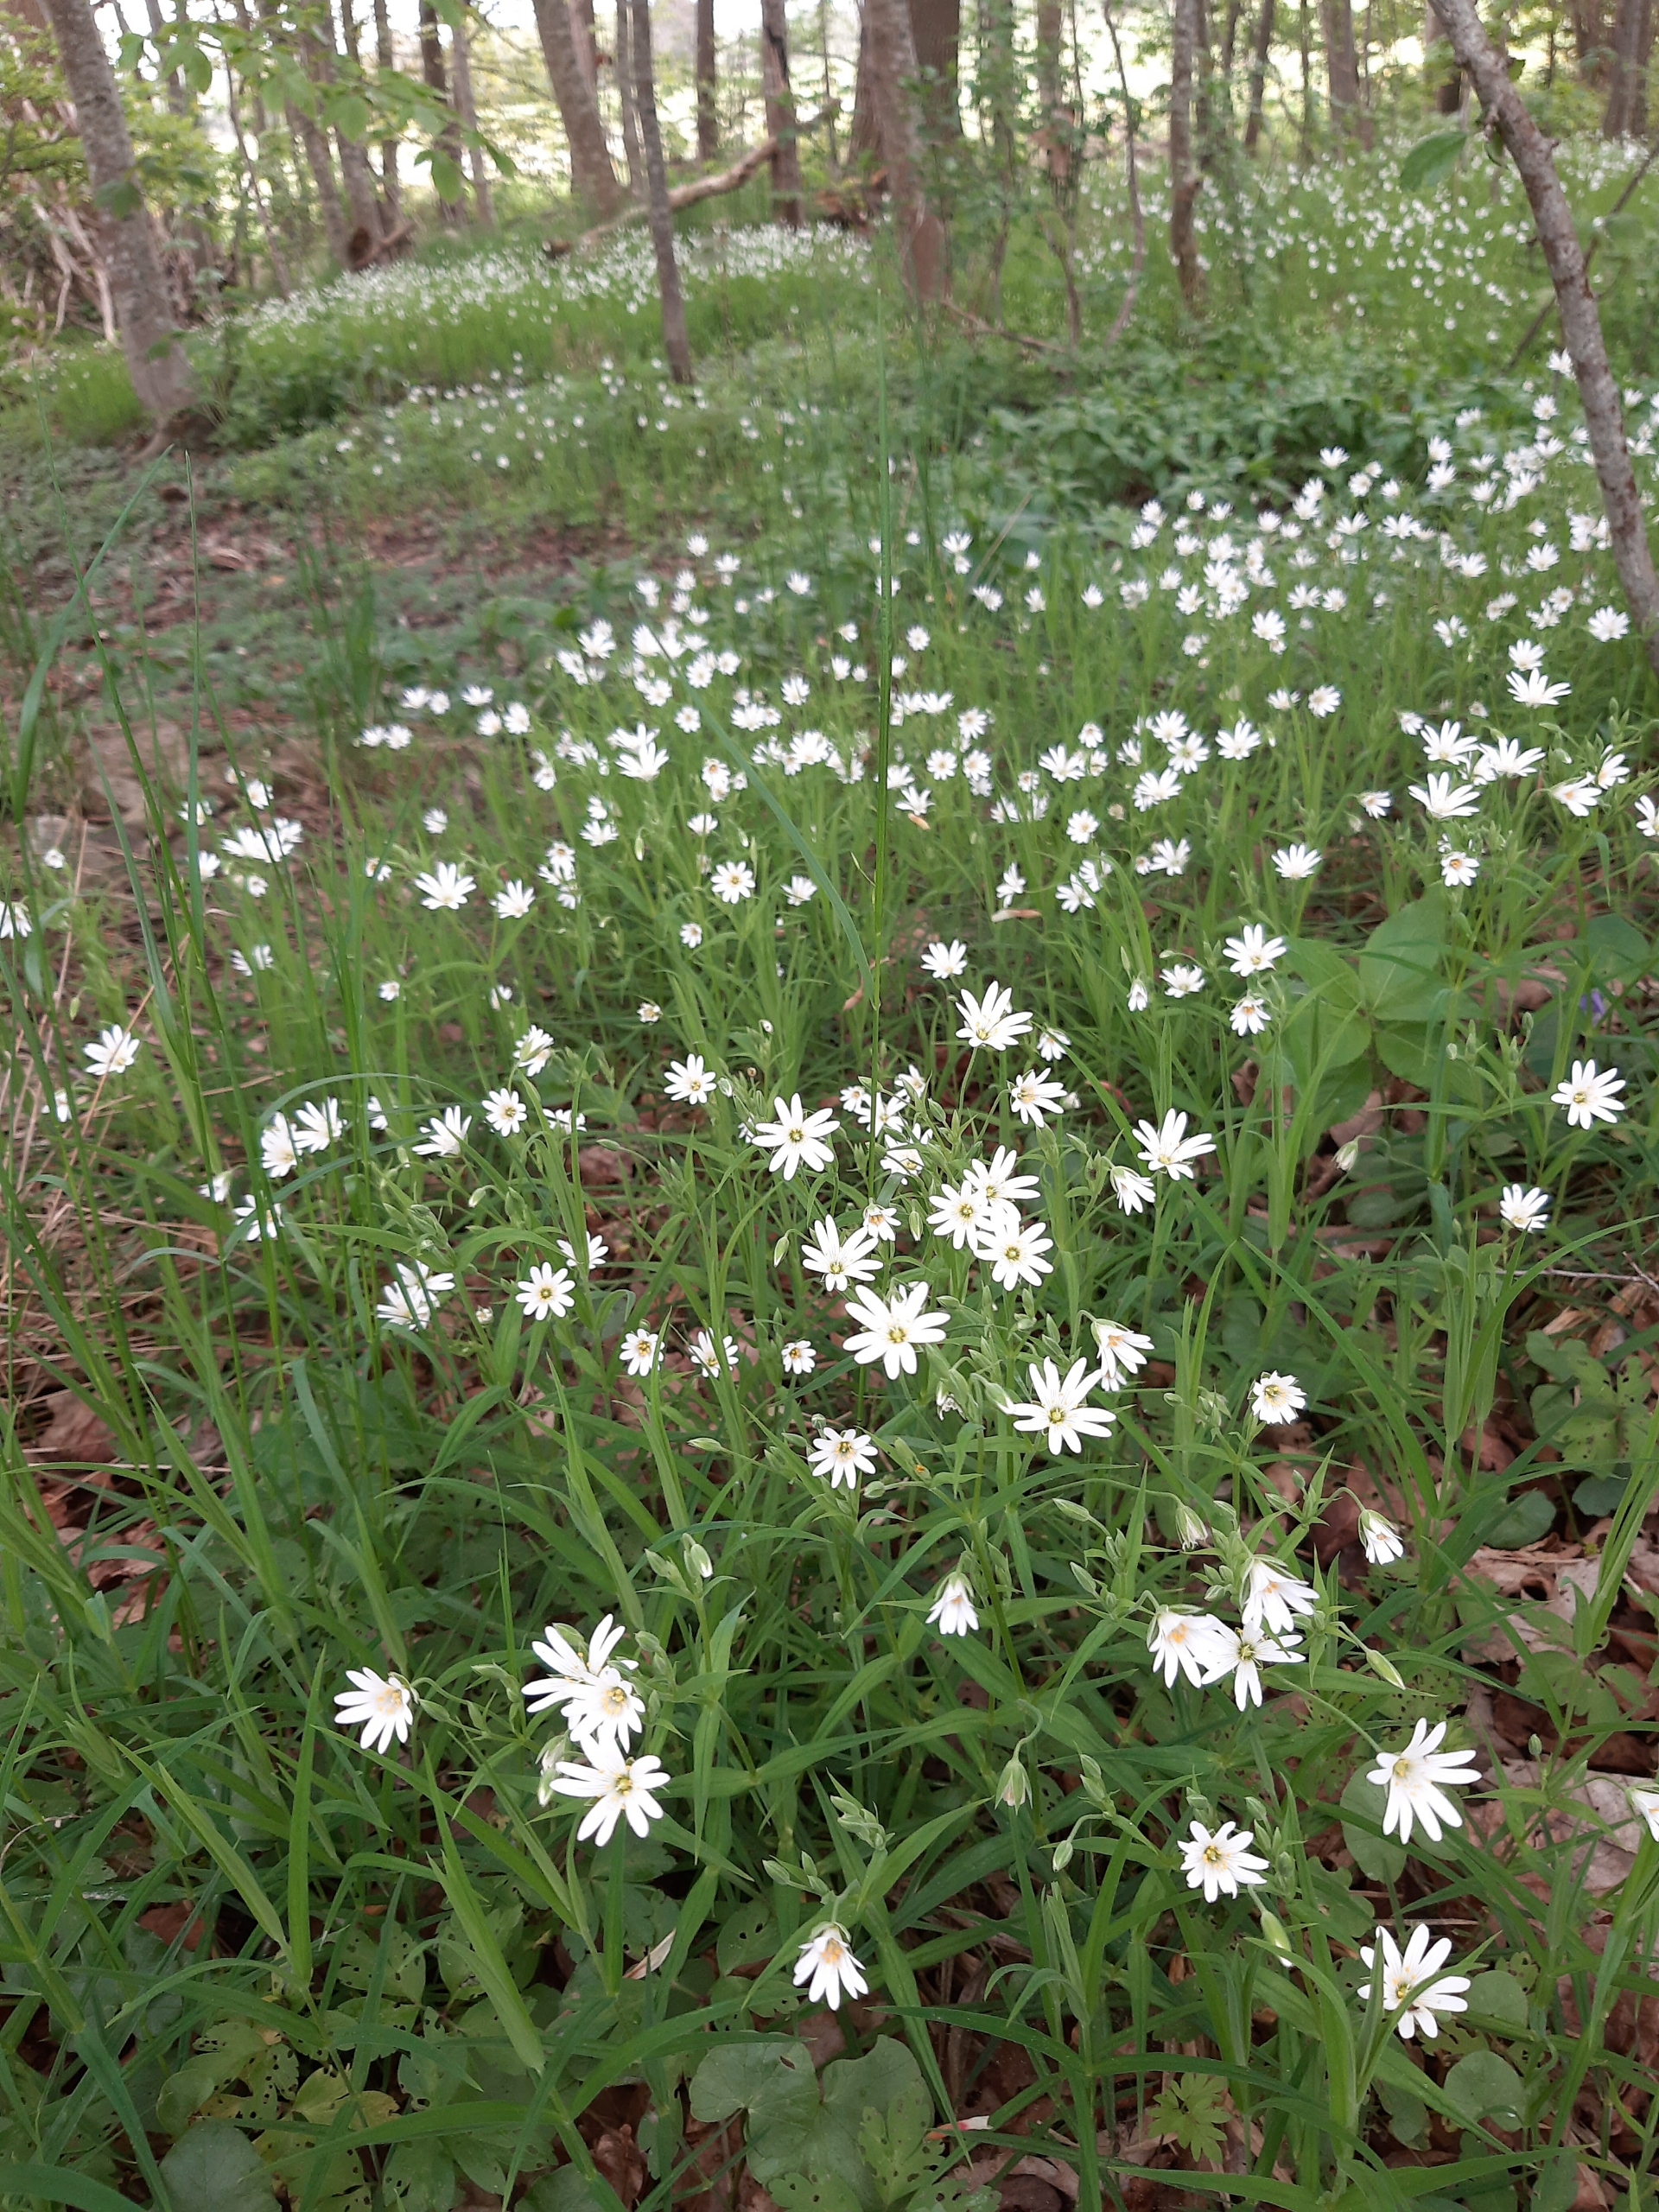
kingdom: Plantae
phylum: Tracheophyta
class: Magnoliopsida
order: Caryophyllales
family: Caryophyllaceae
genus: Rabelera
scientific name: Rabelera holostea
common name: Stor fladstjerne
